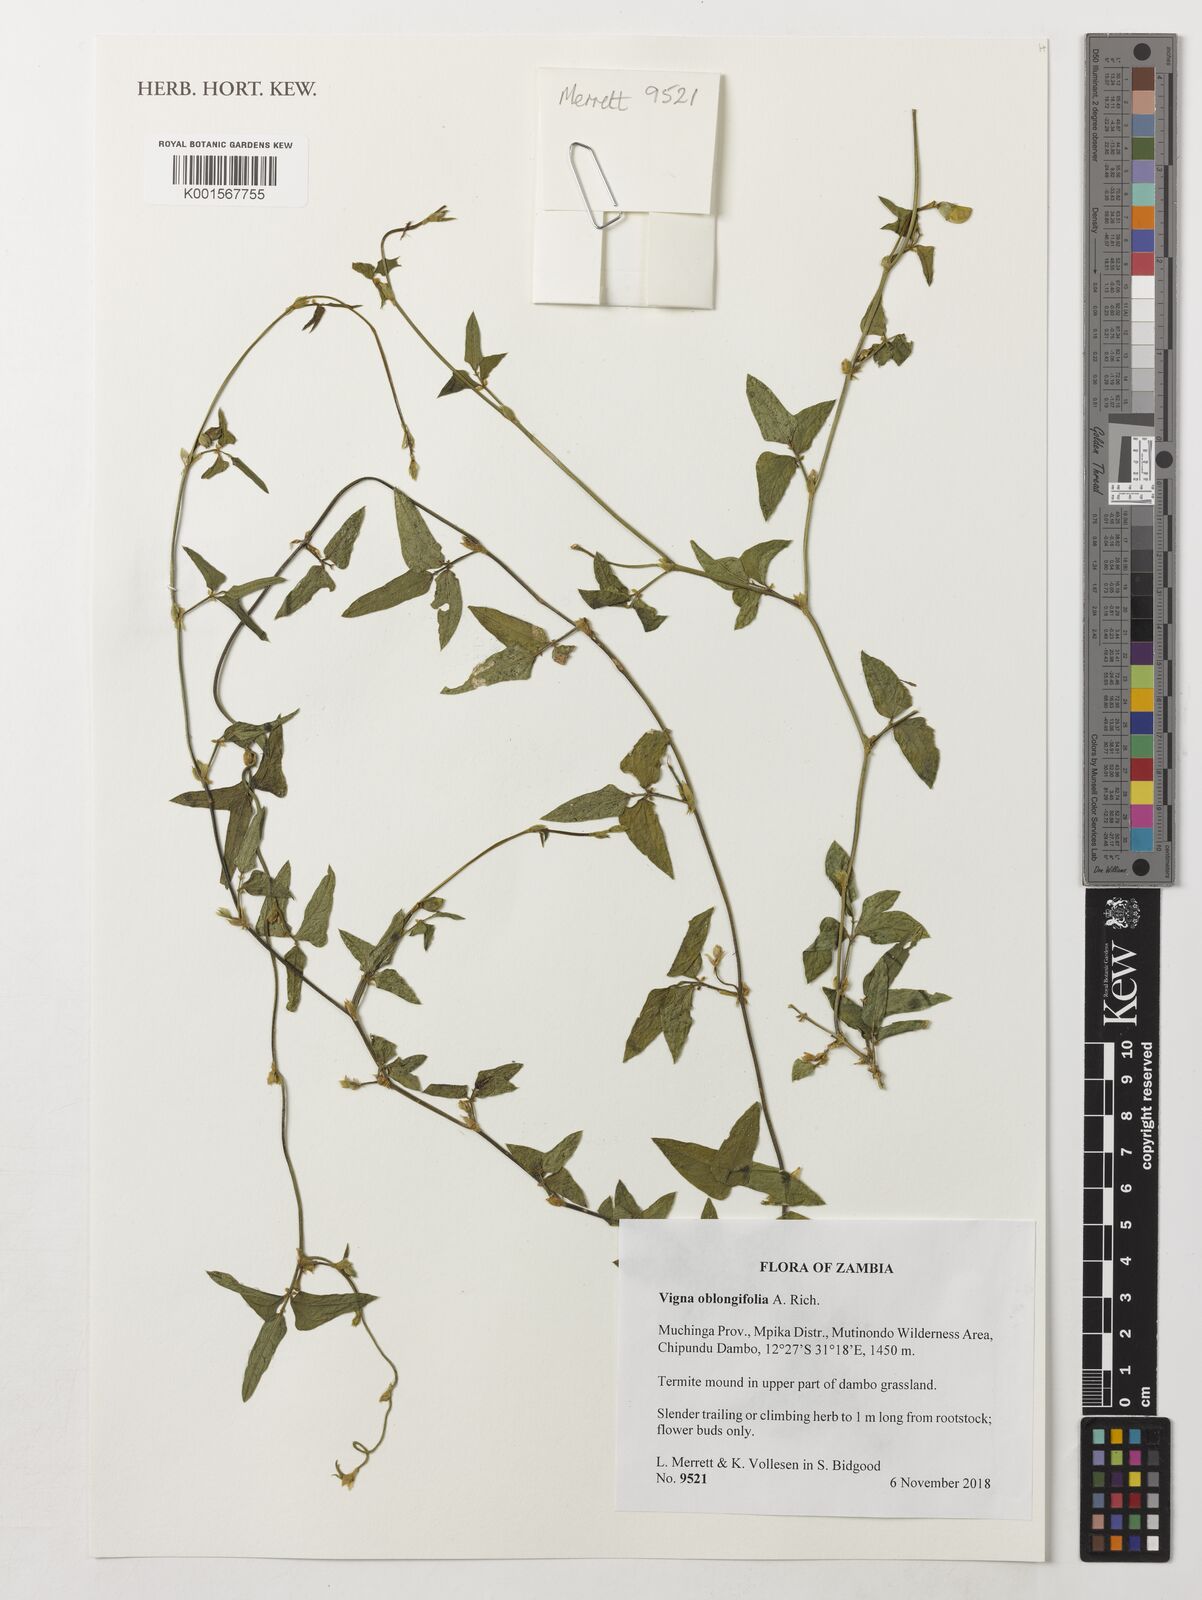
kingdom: Plantae
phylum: Tracheophyta
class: Magnoliopsida
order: Fabales
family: Fabaceae
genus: Vigna
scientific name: Vigna oblongifolia
